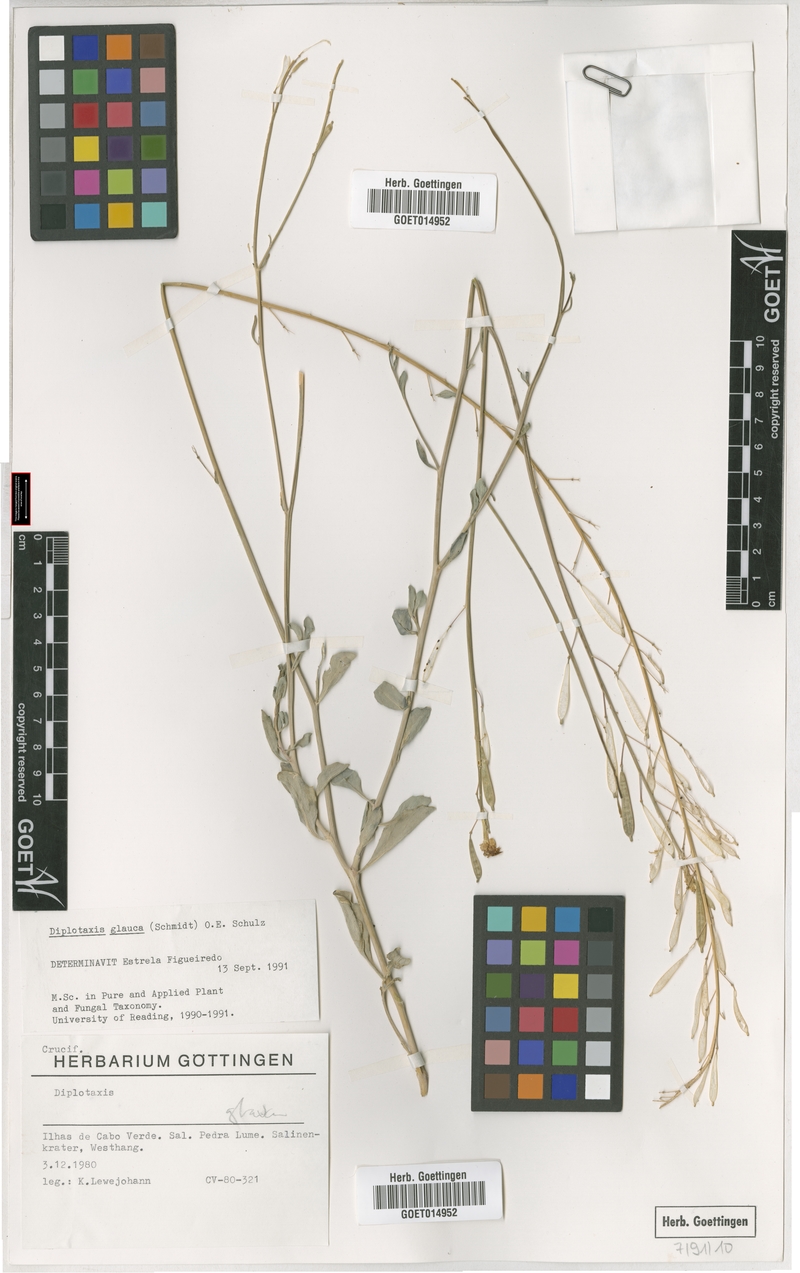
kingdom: Plantae
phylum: Tracheophyta
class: Magnoliopsida
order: Brassicales
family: Brassicaceae
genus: Diplotaxis
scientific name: Diplotaxis glauca
